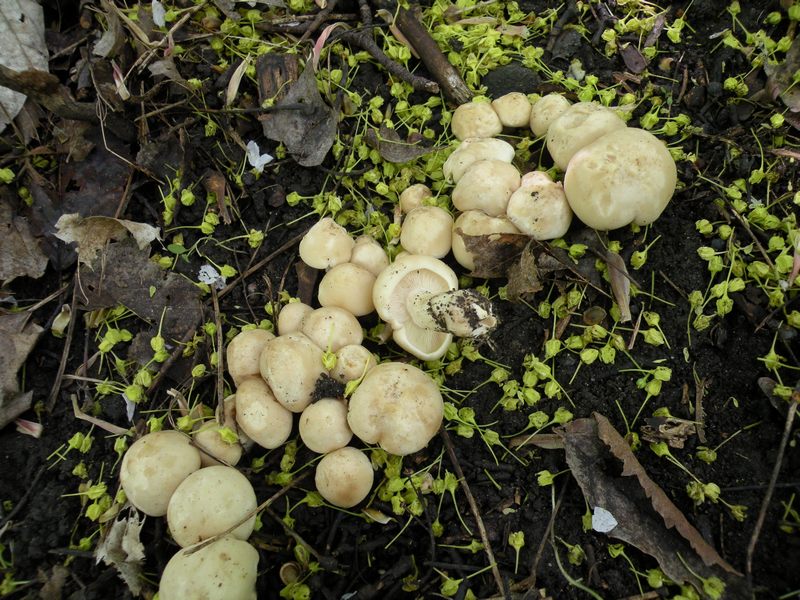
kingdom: Fungi
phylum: Basidiomycota
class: Agaricomycetes
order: Agaricales
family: Lyophyllaceae
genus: Calocybe
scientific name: Calocybe gambosa
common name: vårmusseron
